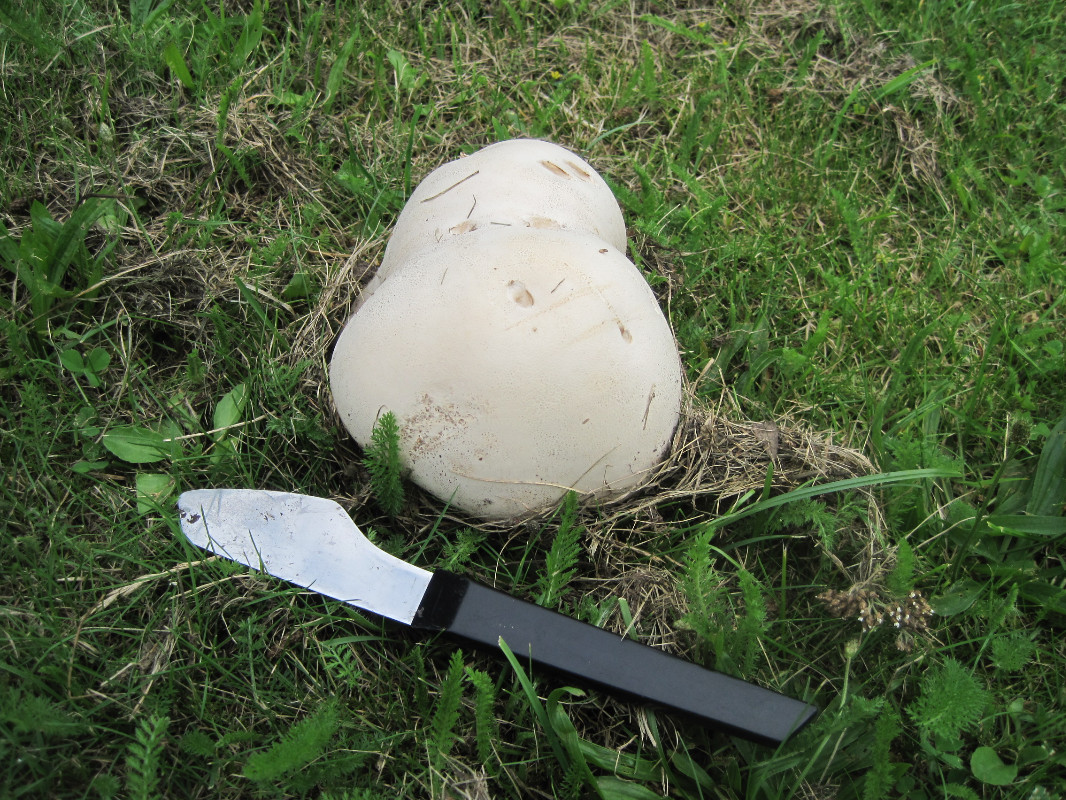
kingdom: Fungi
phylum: Basidiomycota
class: Agaricomycetes
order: Agaricales
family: Lycoperdaceae
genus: Calvatia
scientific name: Calvatia gigantea
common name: kæmpestøvbold
